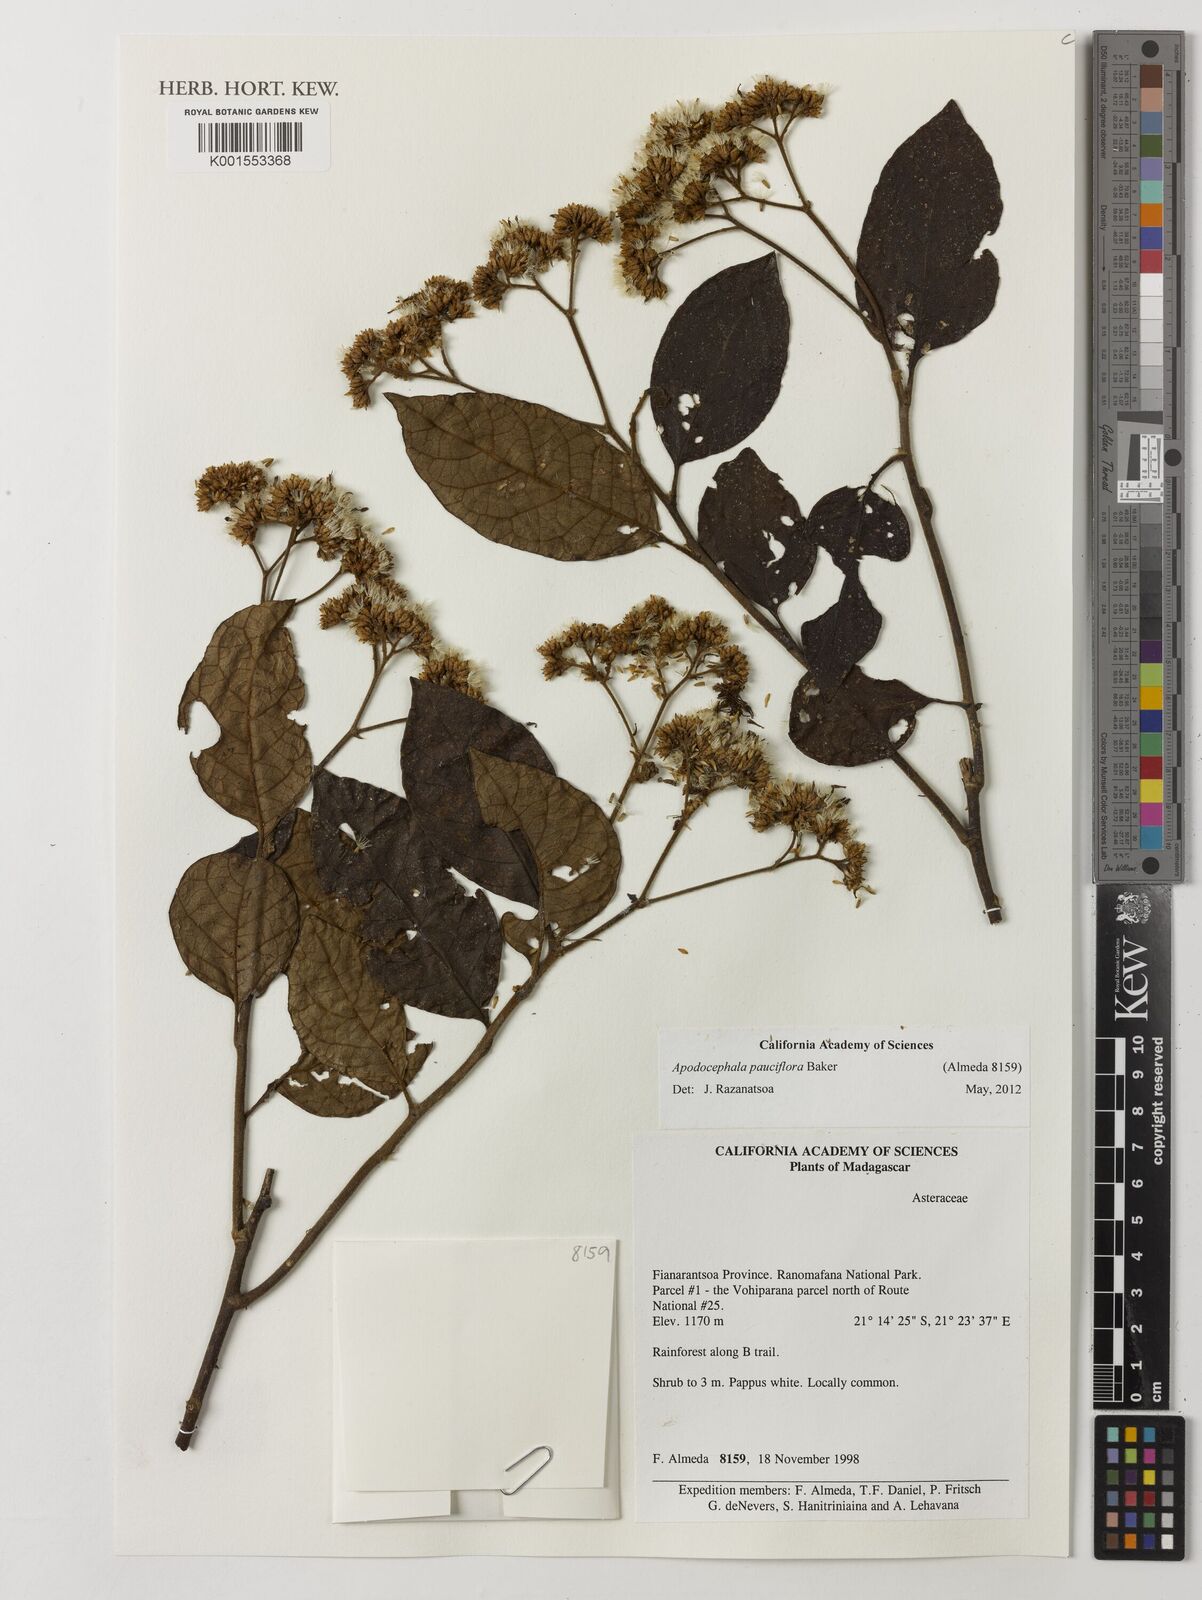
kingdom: Plantae
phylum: Tracheophyta
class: Magnoliopsida
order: Asterales
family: Asteraceae
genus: Apodocephala
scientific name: Apodocephala pauciflora
